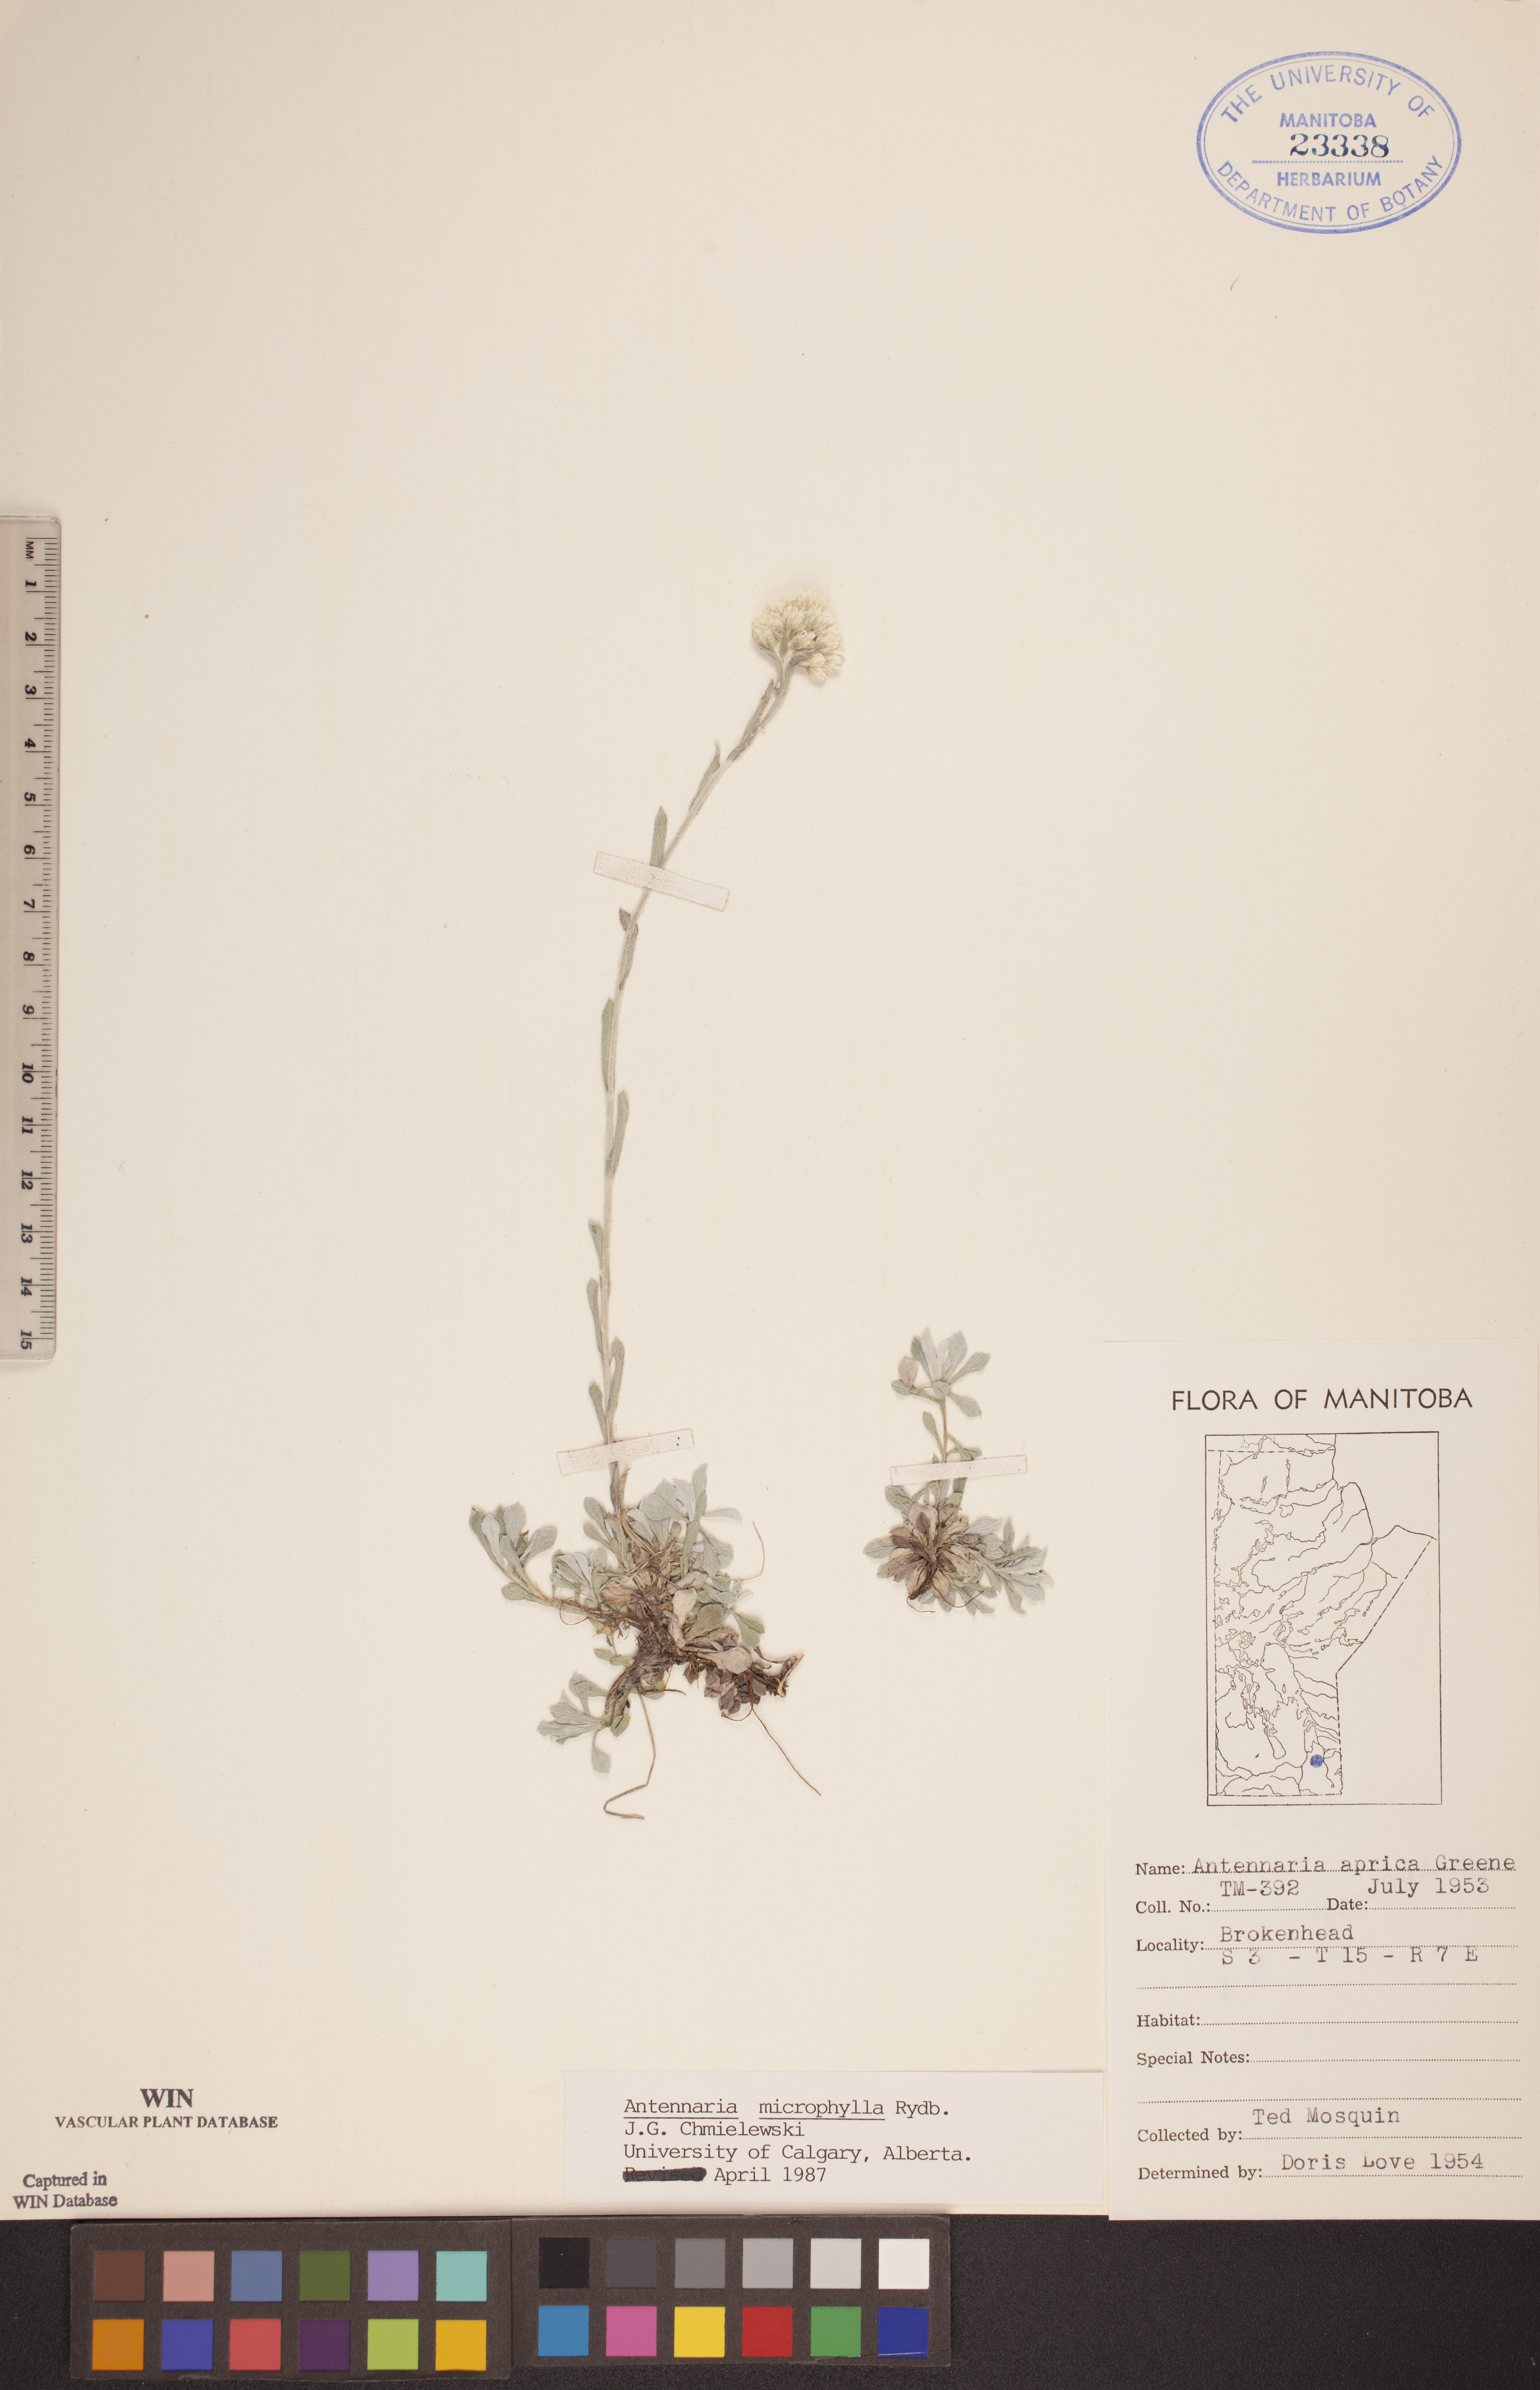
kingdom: Plantae
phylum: Tracheophyta
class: Magnoliopsida
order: Asterales
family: Asteraceae
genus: Antennaria
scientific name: Antennaria microphylla
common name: Littleleaf pussytoes
